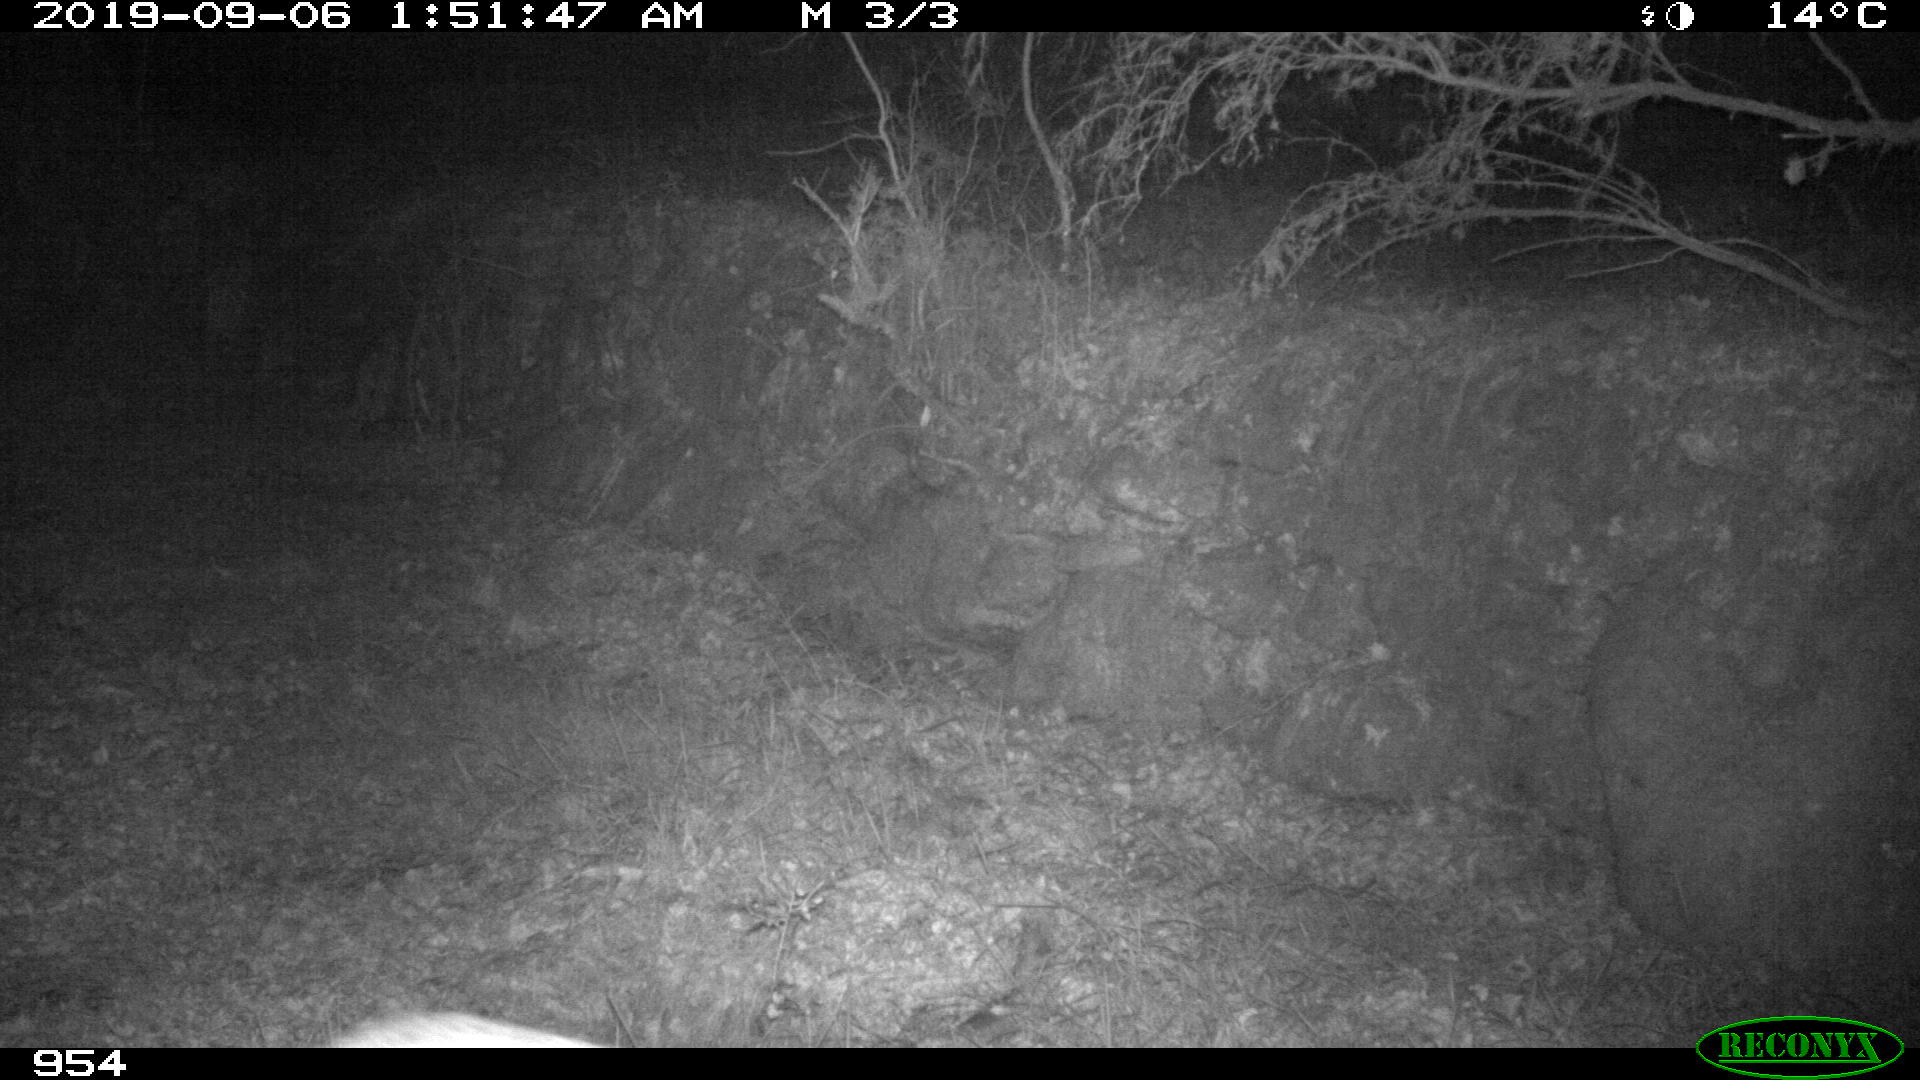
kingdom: Animalia
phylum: Chordata
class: Mammalia
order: Artiodactyla
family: Suidae
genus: Sus
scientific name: Sus scrofa
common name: Wild boar
